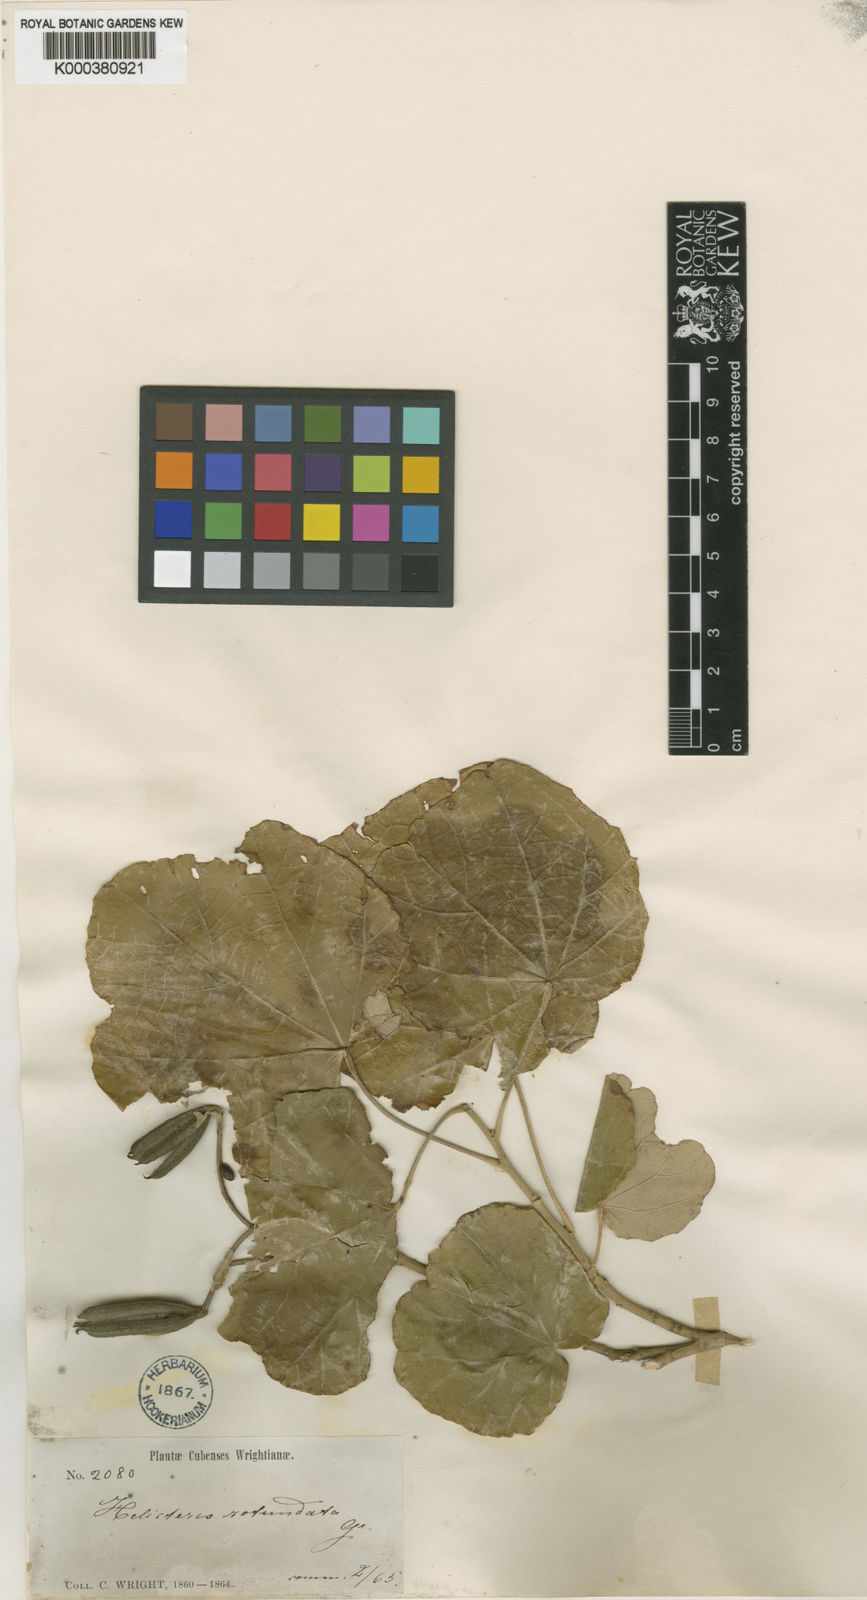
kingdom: Plantae
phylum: Tracheophyta
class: Magnoliopsida
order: Malvales
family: Malvaceae
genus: Helicteres
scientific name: Helicteres semitriloba
